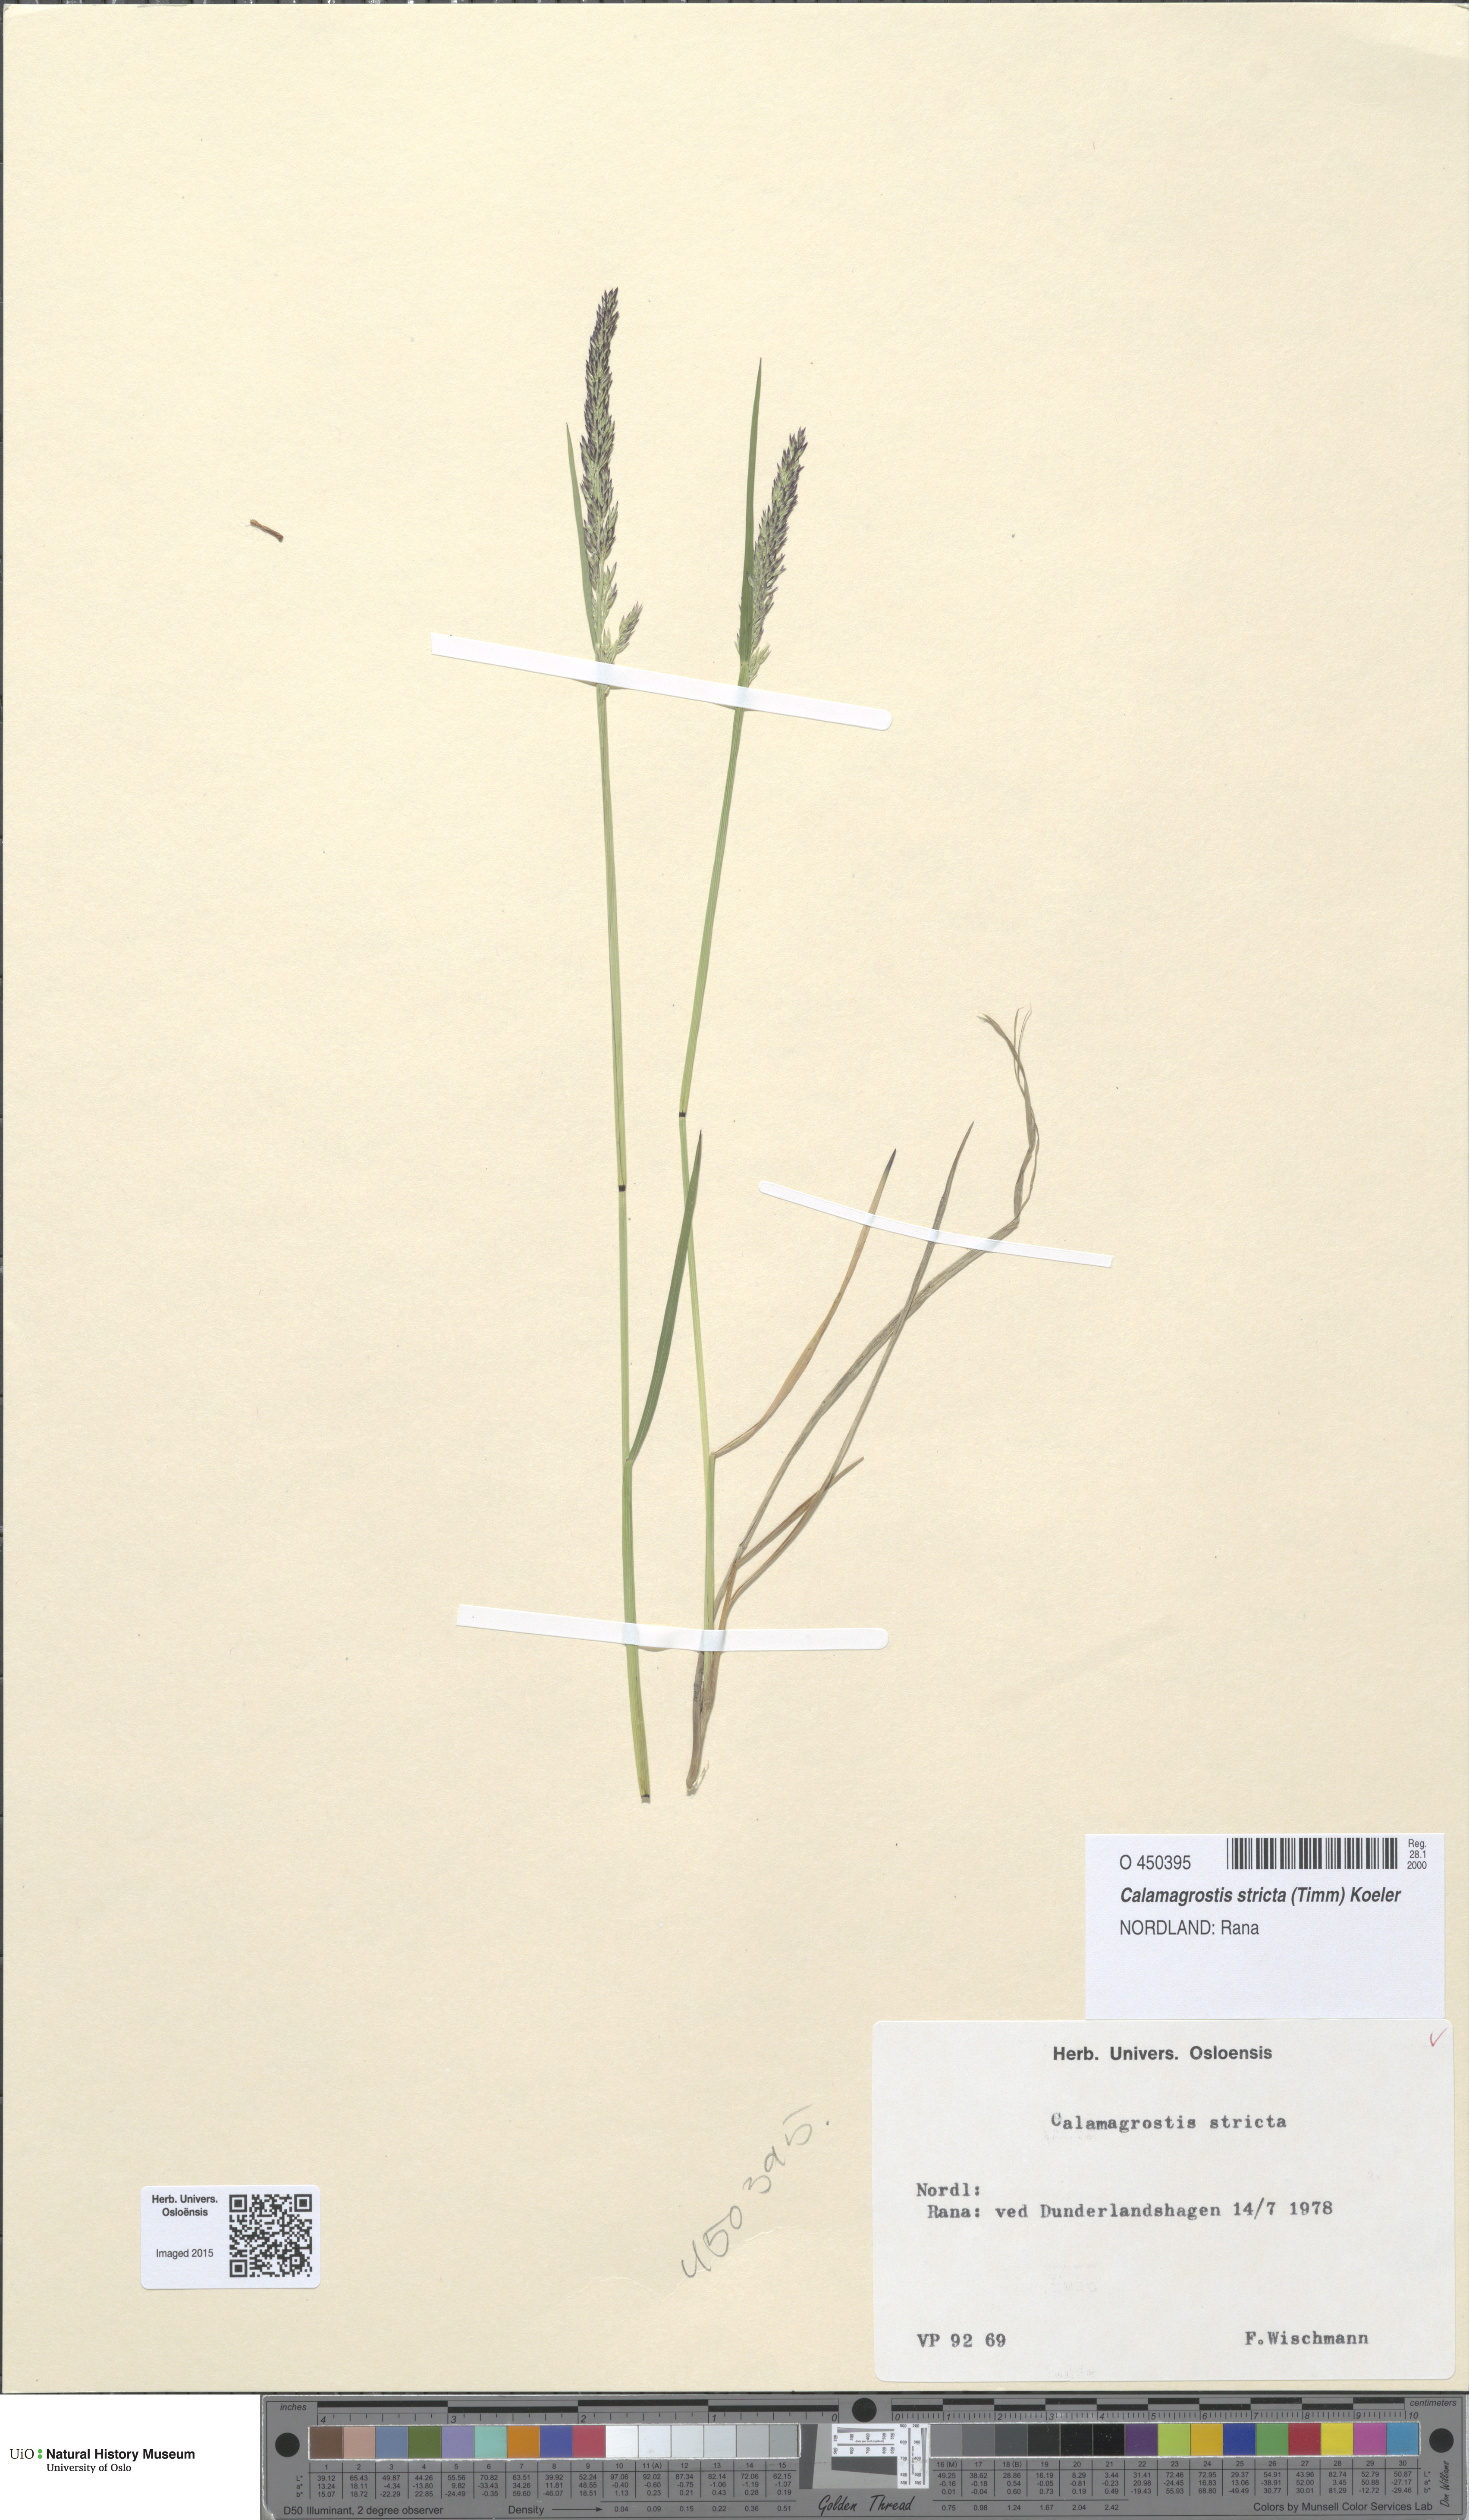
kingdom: Plantae
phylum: Tracheophyta
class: Liliopsida
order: Poales
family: Poaceae
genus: Achnatherum
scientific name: Achnatherum calamagrostis
